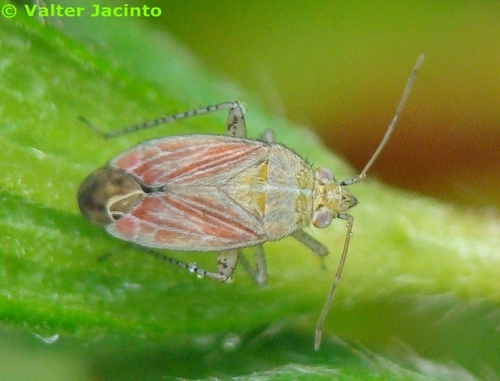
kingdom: Animalia
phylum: Arthropoda
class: Insecta
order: Hemiptera
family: Miridae
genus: Pachyxyphus
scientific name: Pachyxyphus lineellus
